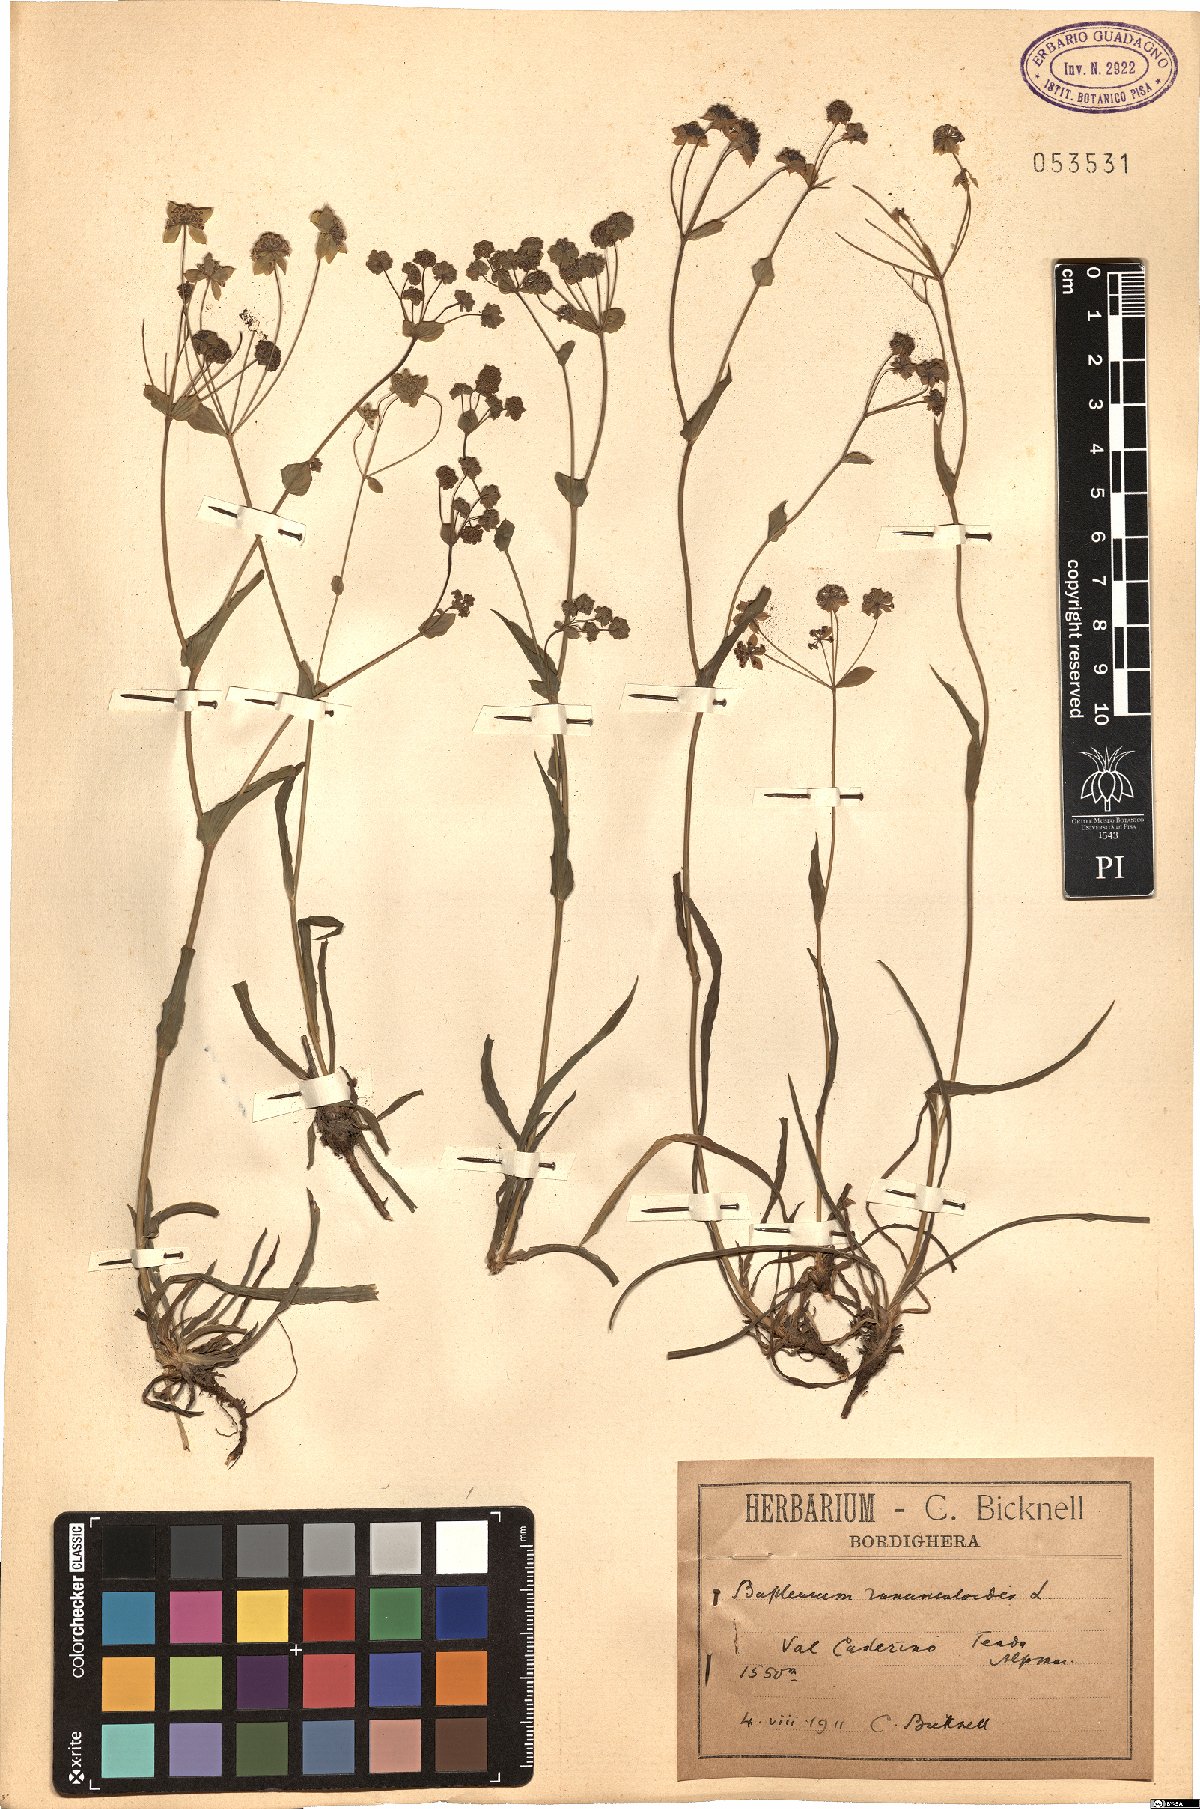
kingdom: Plantae
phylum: Tracheophyta
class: Magnoliopsida
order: Apiales
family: Apiaceae
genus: Bupleurum
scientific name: Bupleurum ranunculoides
